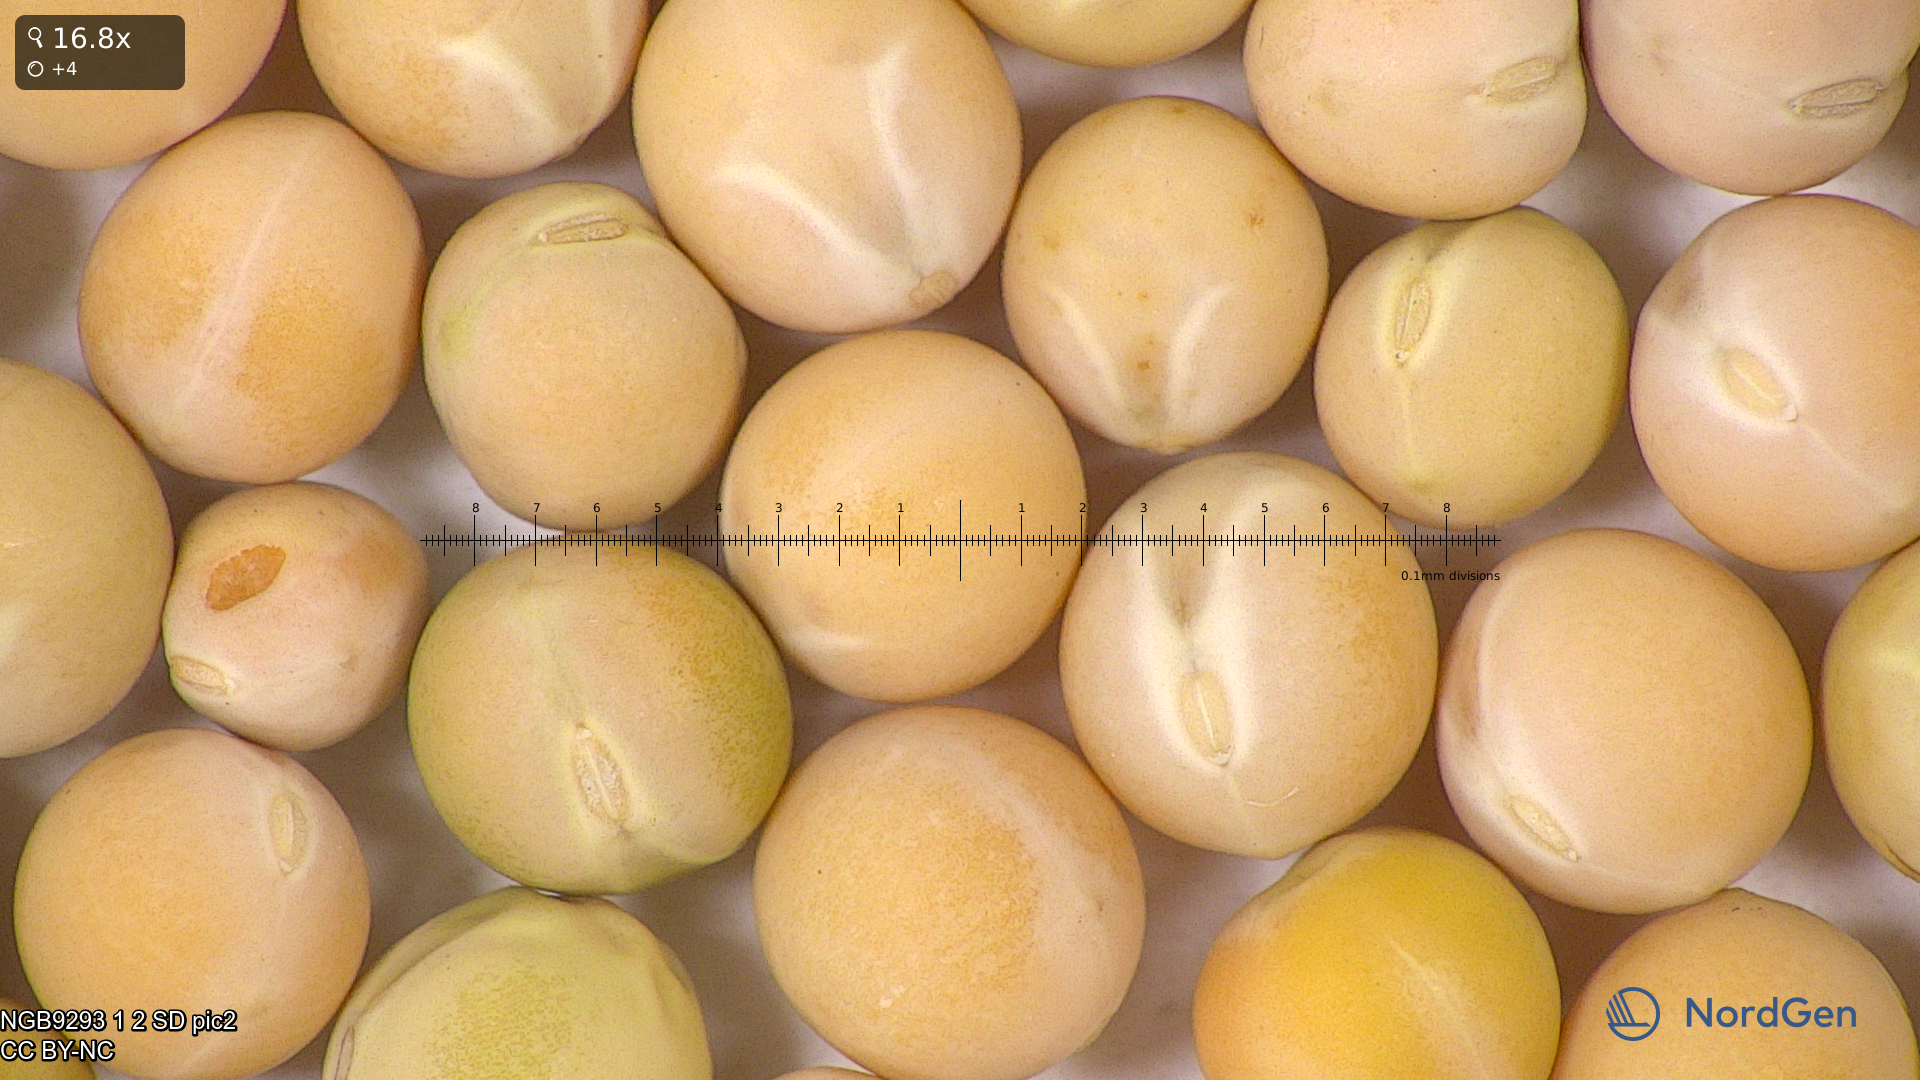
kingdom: Plantae
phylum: Tracheophyta
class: Magnoliopsida
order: Fabales
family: Fabaceae
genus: Lathyrus
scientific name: Lathyrus oleraceus
